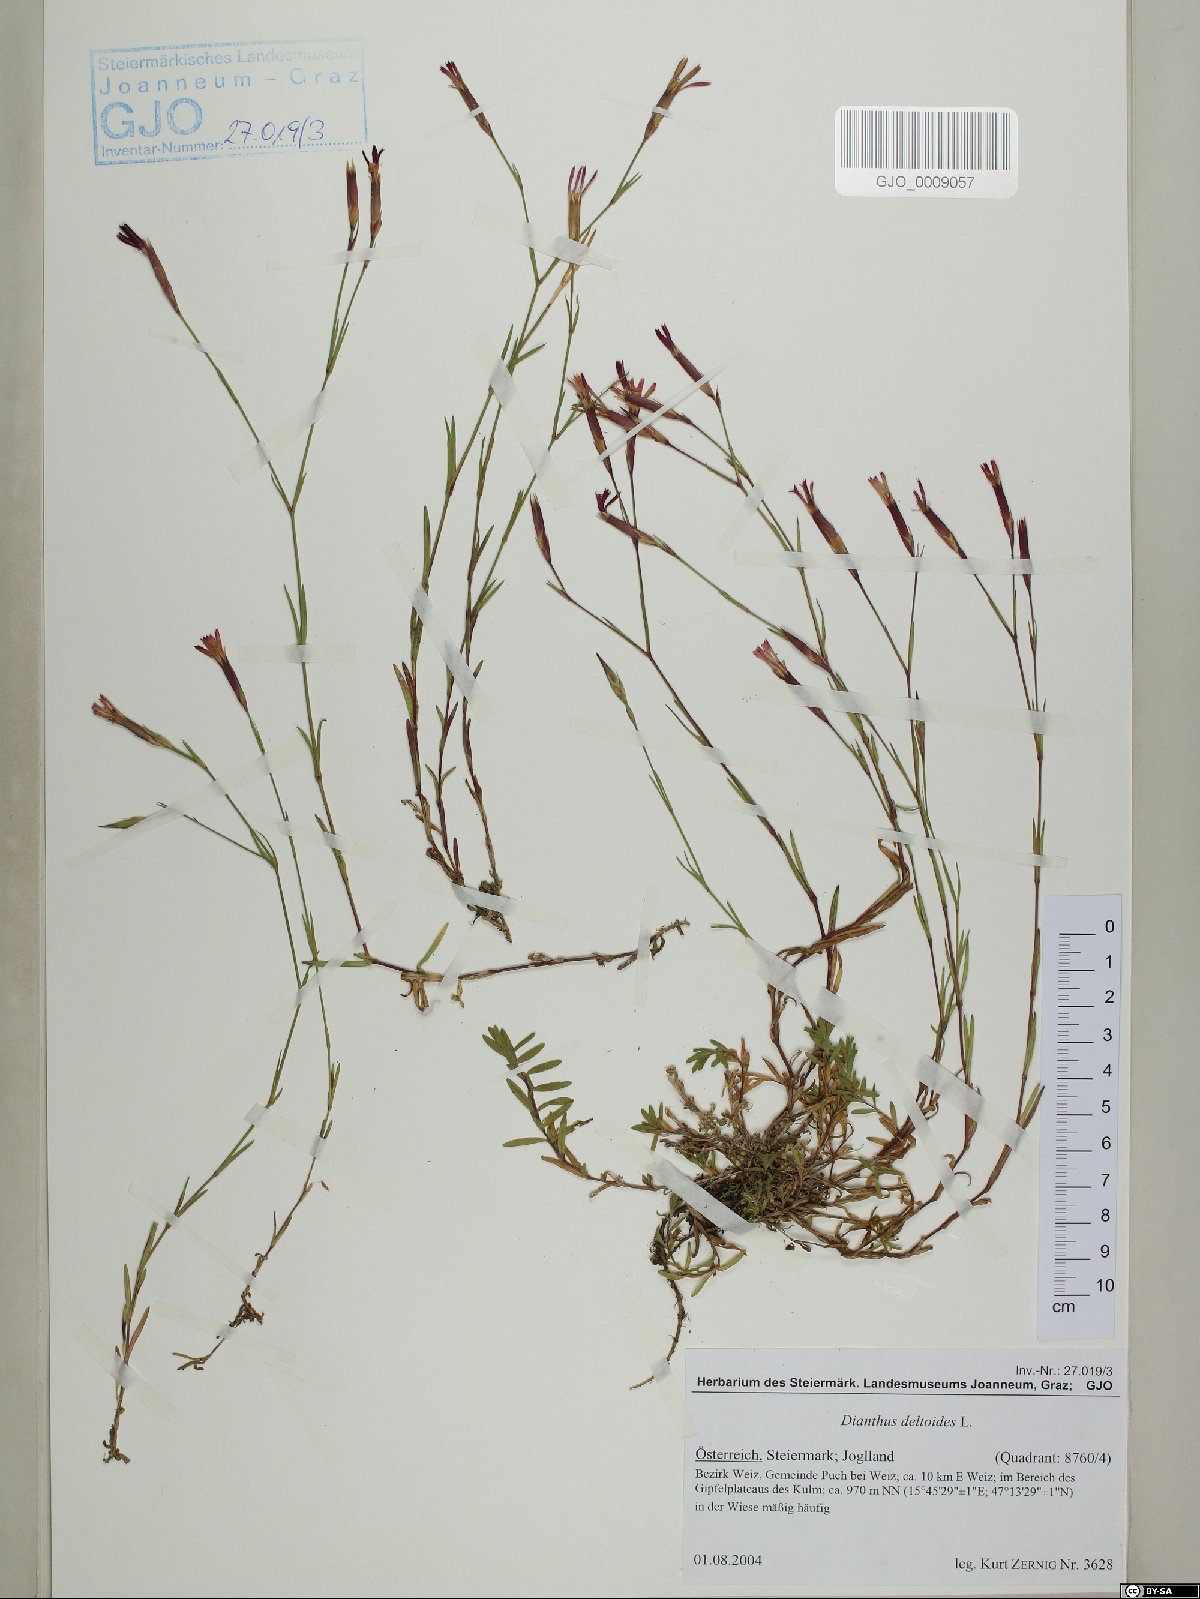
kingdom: Plantae
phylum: Tracheophyta
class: Magnoliopsida
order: Caryophyllales
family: Caryophyllaceae
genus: Dianthus
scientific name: Dianthus deltoides
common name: Maiden pink
